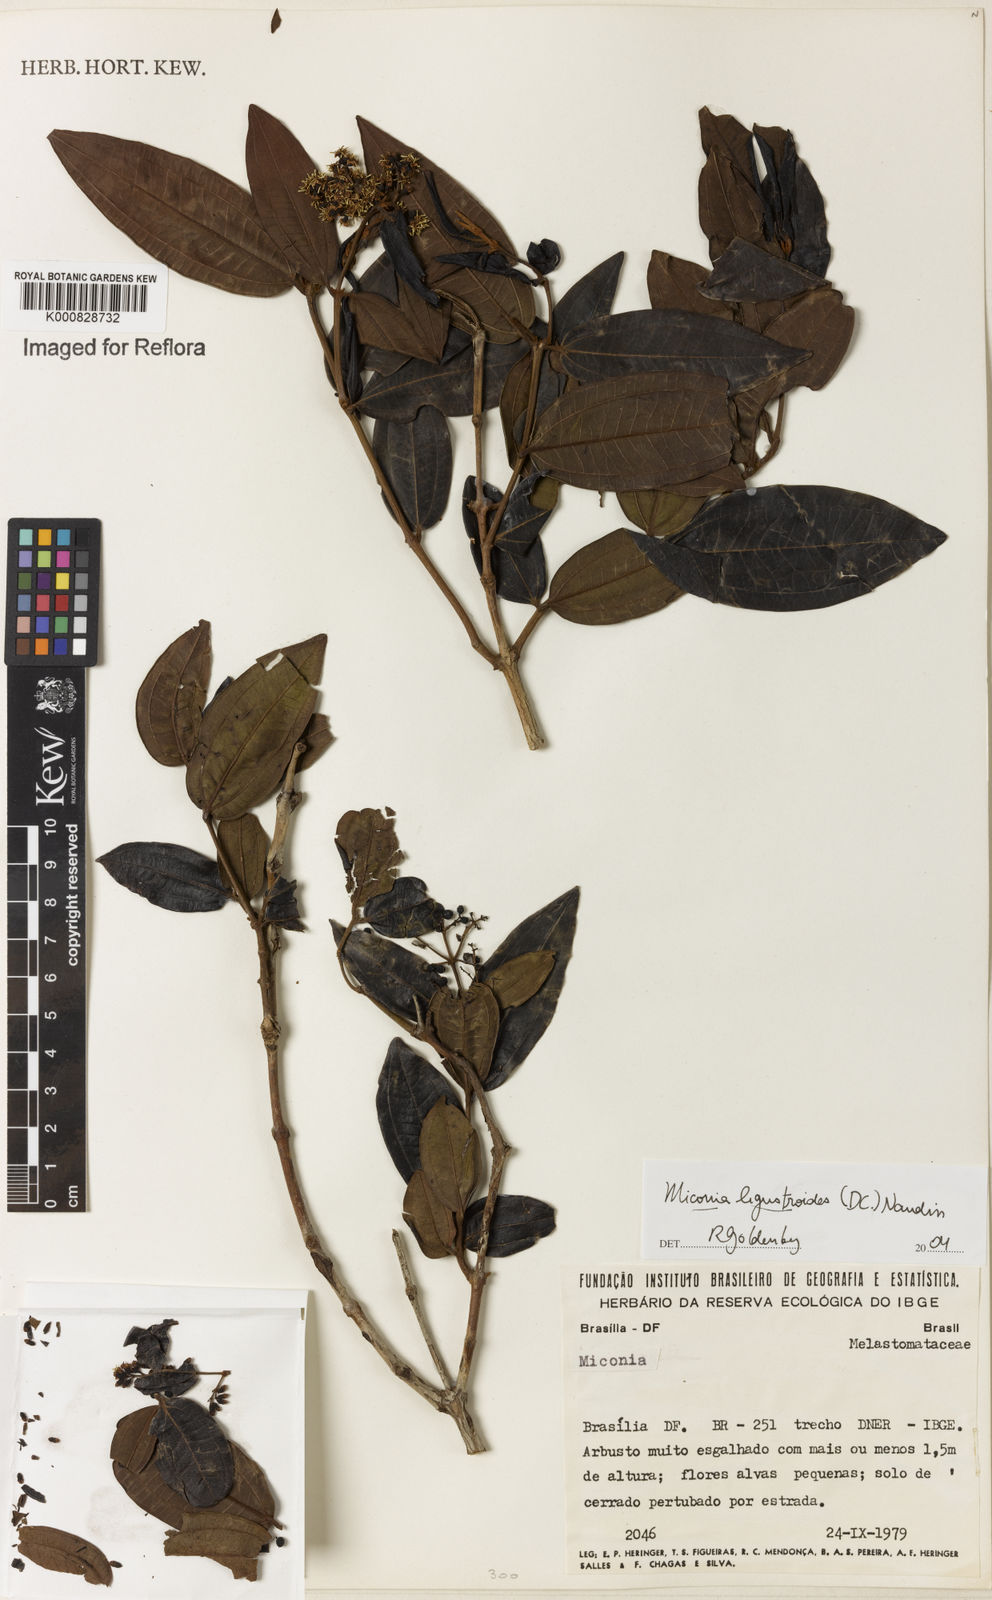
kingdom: Plantae
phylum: Tracheophyta
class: Magnoliopsida
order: Myrtales
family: Melastomataceae
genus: Miconia
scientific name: Miconia ligustroides
